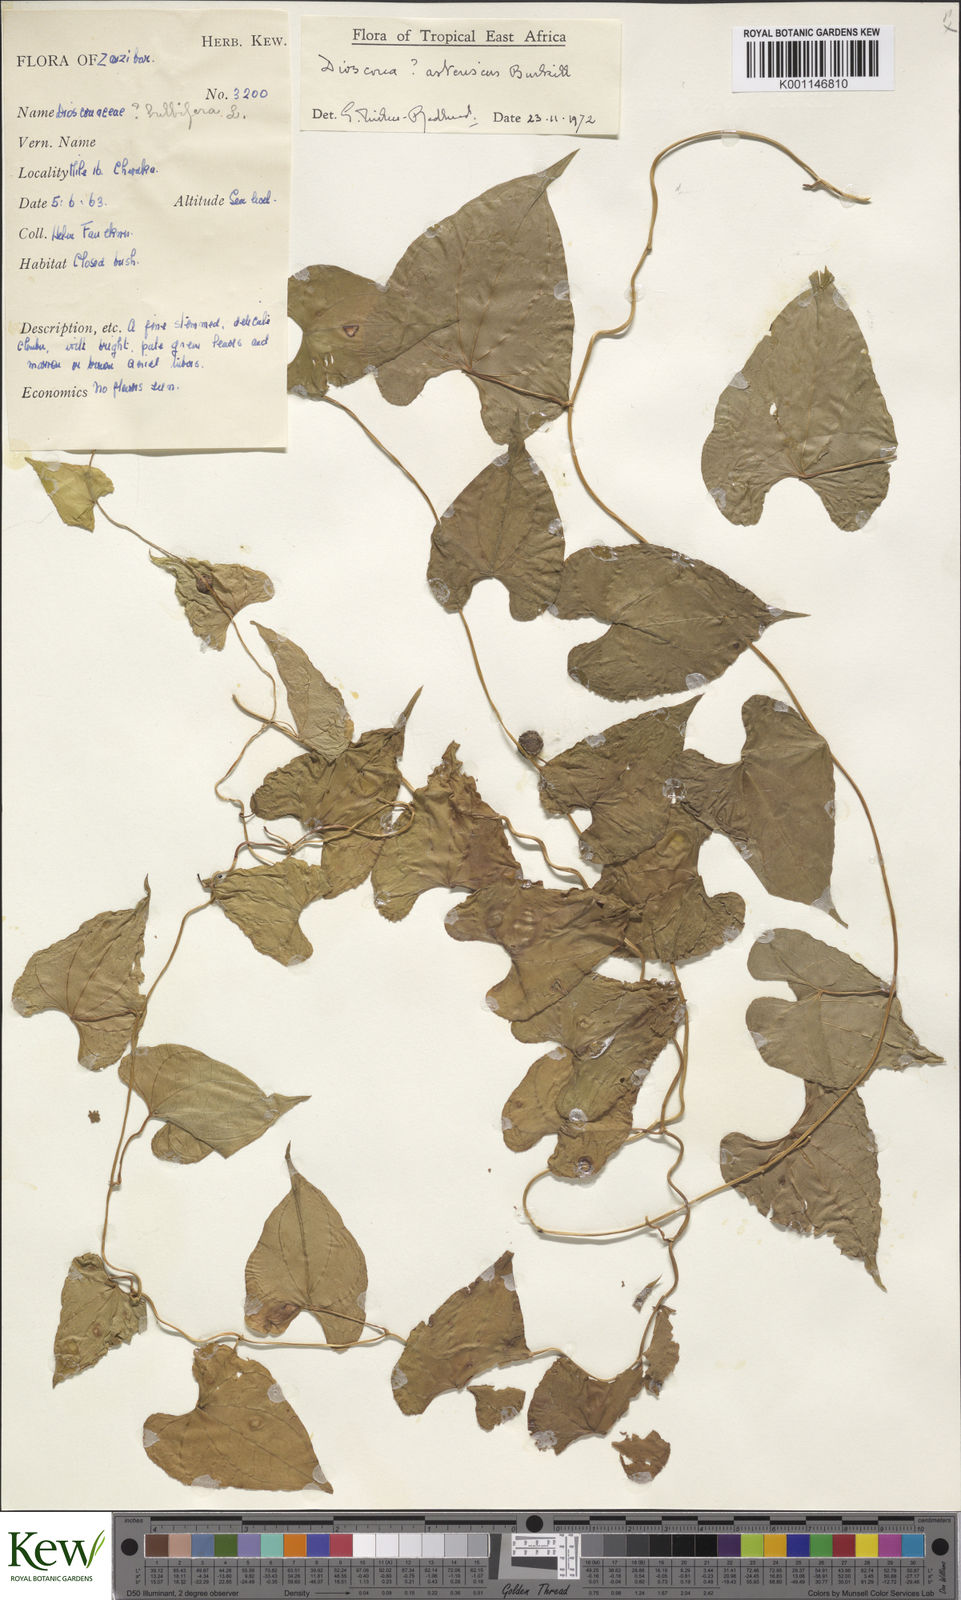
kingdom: Plantae
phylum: Tracheophyta
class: Liliopsida
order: Dioscoreales
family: Dioscoreaceae
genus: Dioscorea
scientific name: Dioscorea asteriscus
